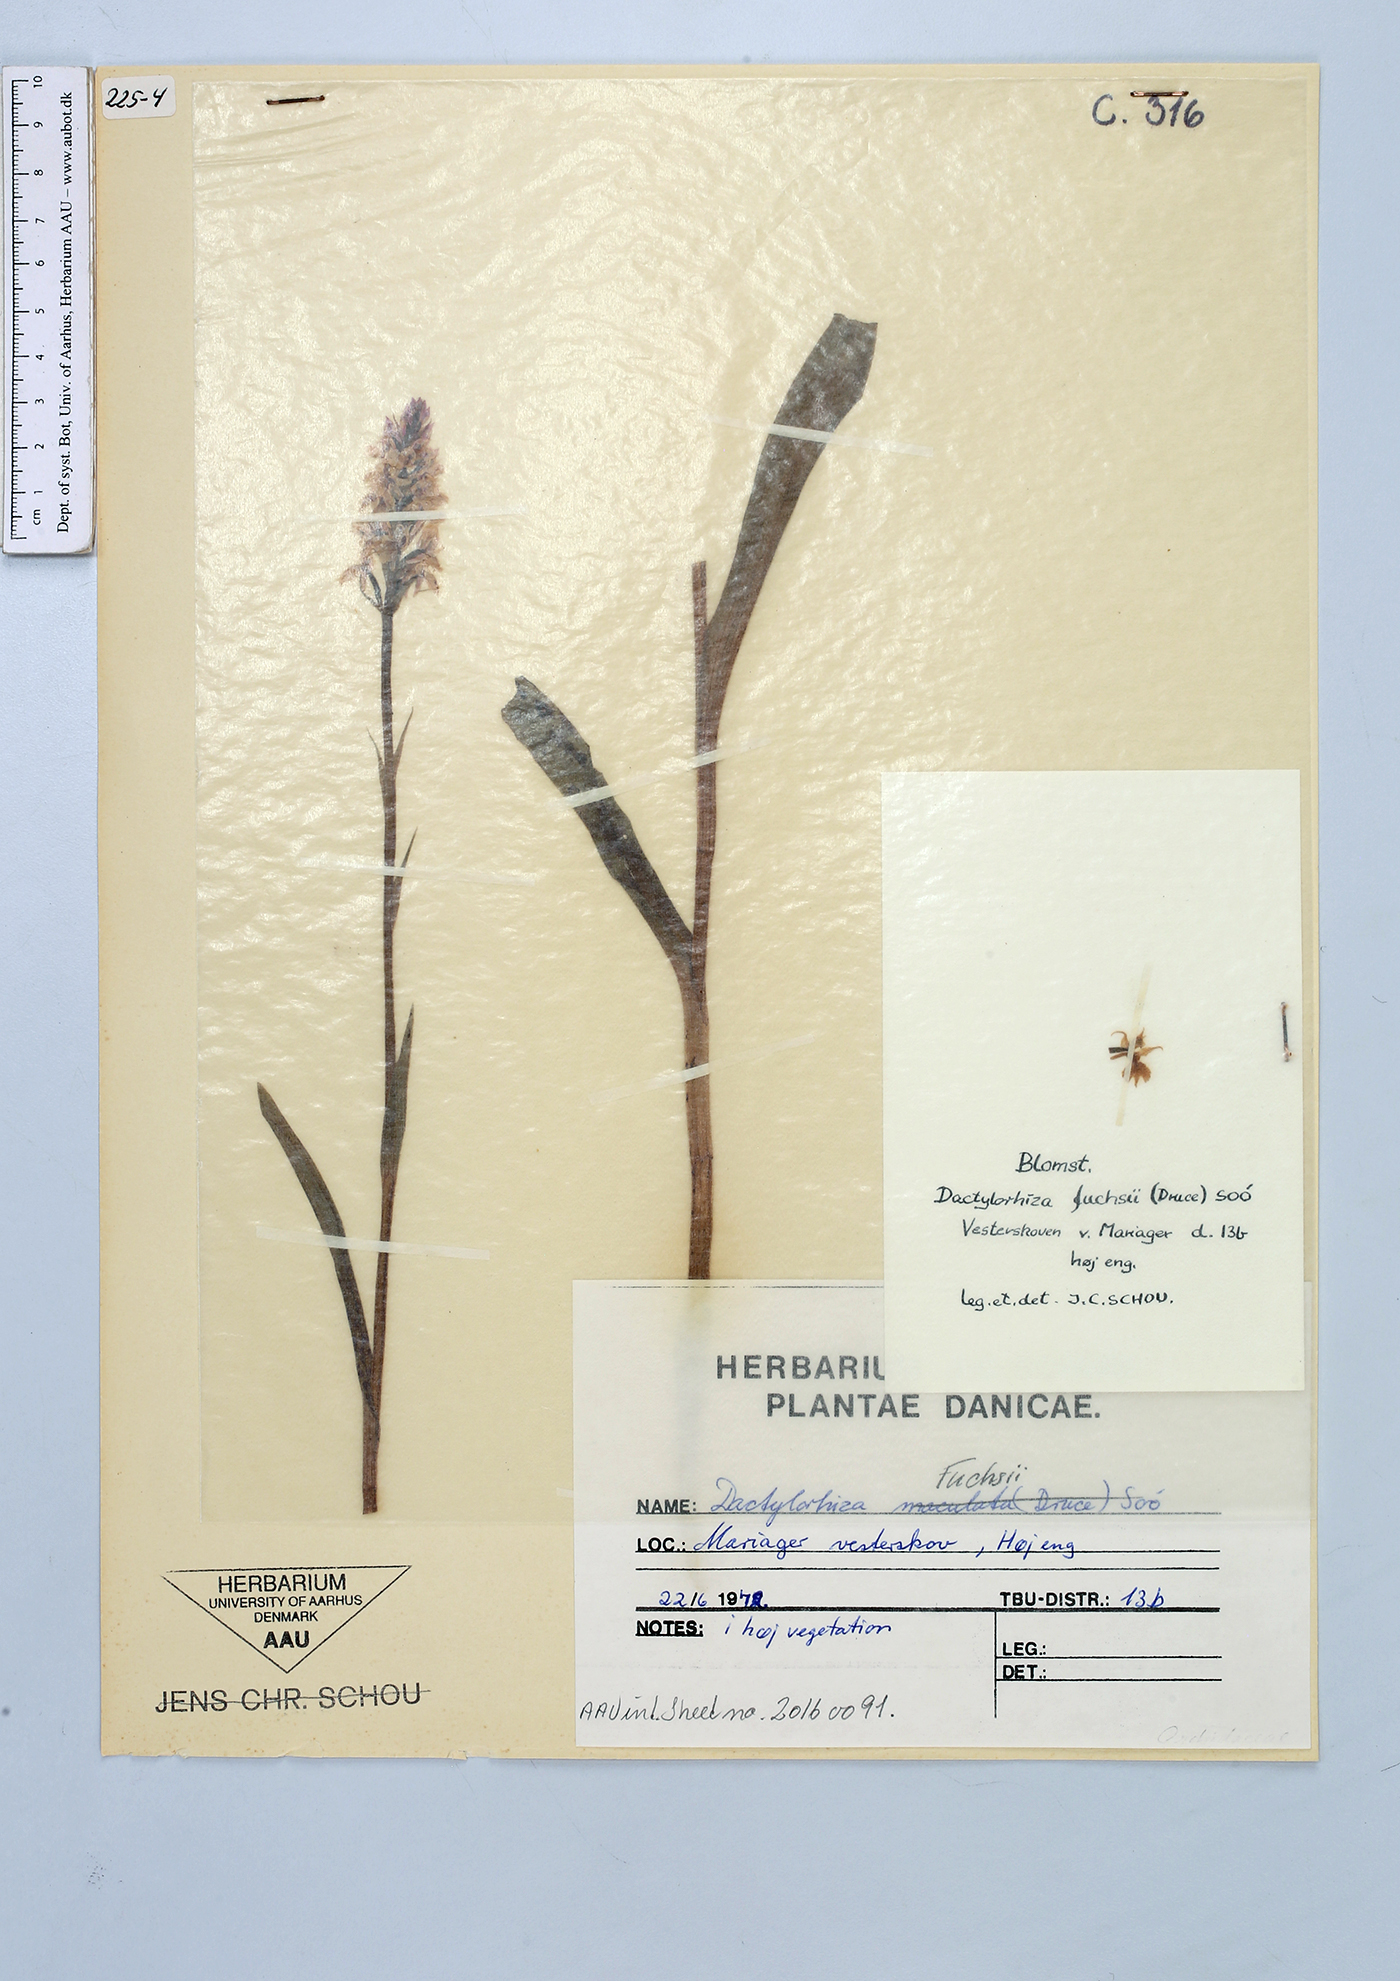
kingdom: Plantae
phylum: Tracheophyta
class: Liliopsida
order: Asparagales
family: Orchidaceae
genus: Dactylorhiza
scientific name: Dactylorhiza maculata
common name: Heath spotted-orchid
